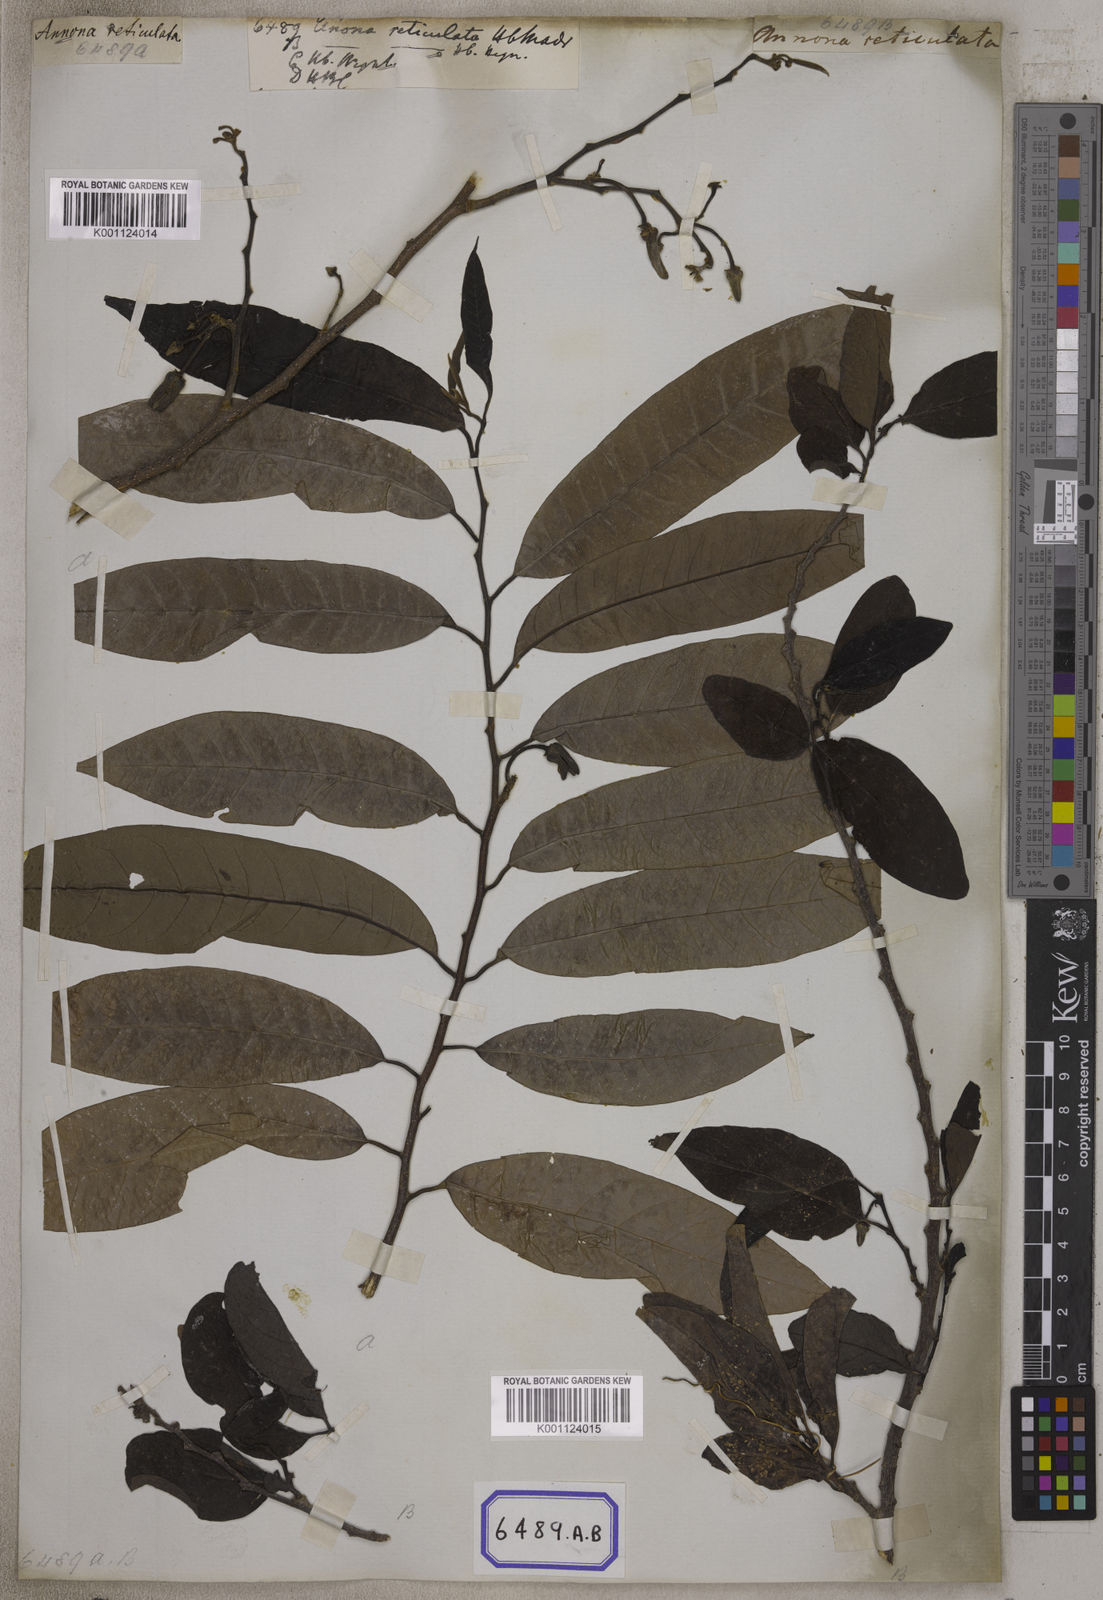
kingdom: Plantae
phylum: Tracheophyta
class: Magnoliopsida
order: Magnoliales
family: Annonaceae
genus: Annona
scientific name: Annona reticulata
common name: Custard apple
